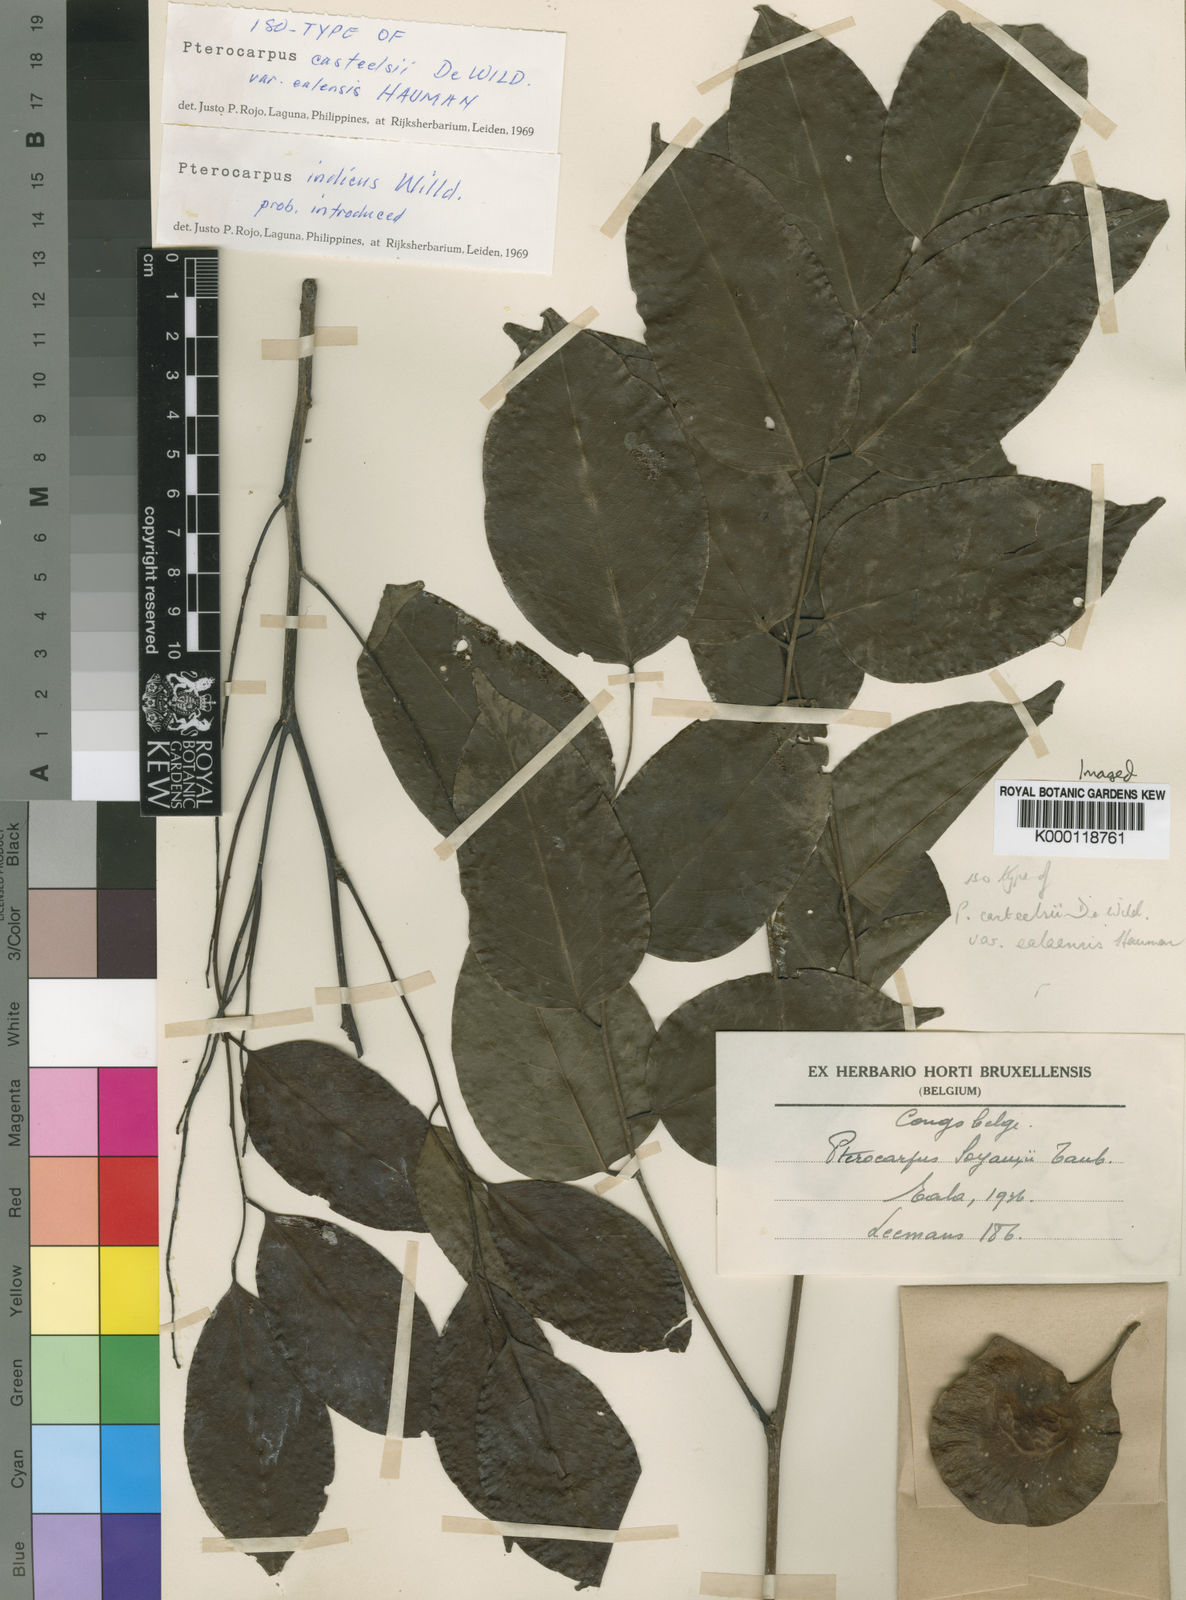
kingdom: Plantae
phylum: Tracheophyta
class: Magnoliopsida
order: Fabales
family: Fabaceae
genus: Pterocarpus
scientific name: Pterocarpus indicus
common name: Burmese rosewood
